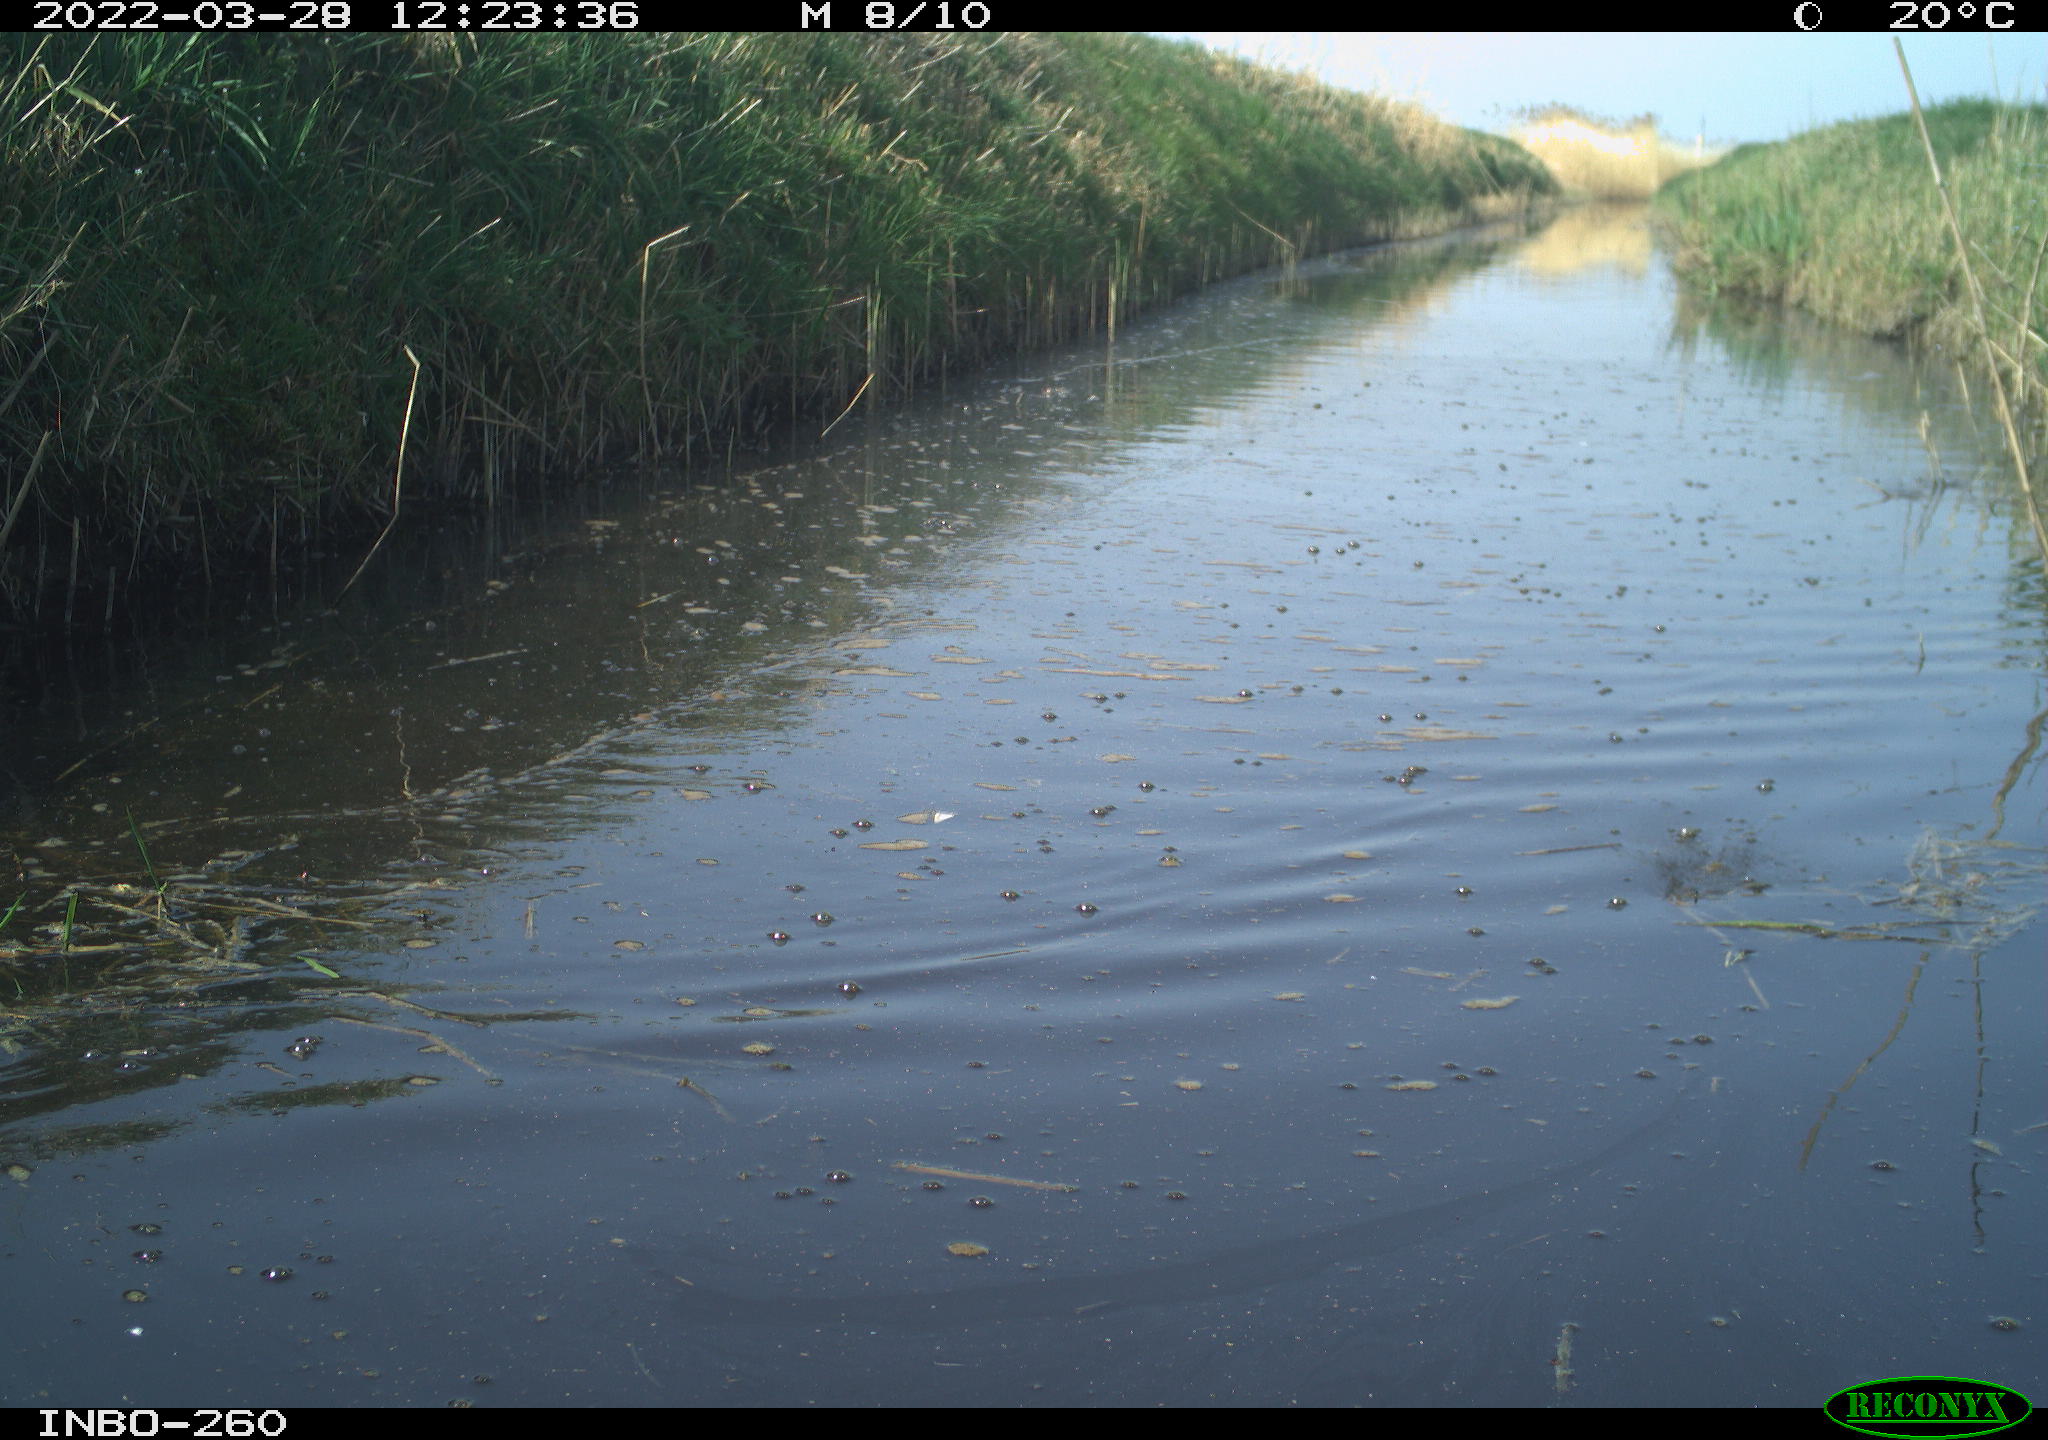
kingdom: Animalia
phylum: Chordata
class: Aves
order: Gruiformes
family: Rallidae
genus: Fulica
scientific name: Fulica atra
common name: Eurasian coot
